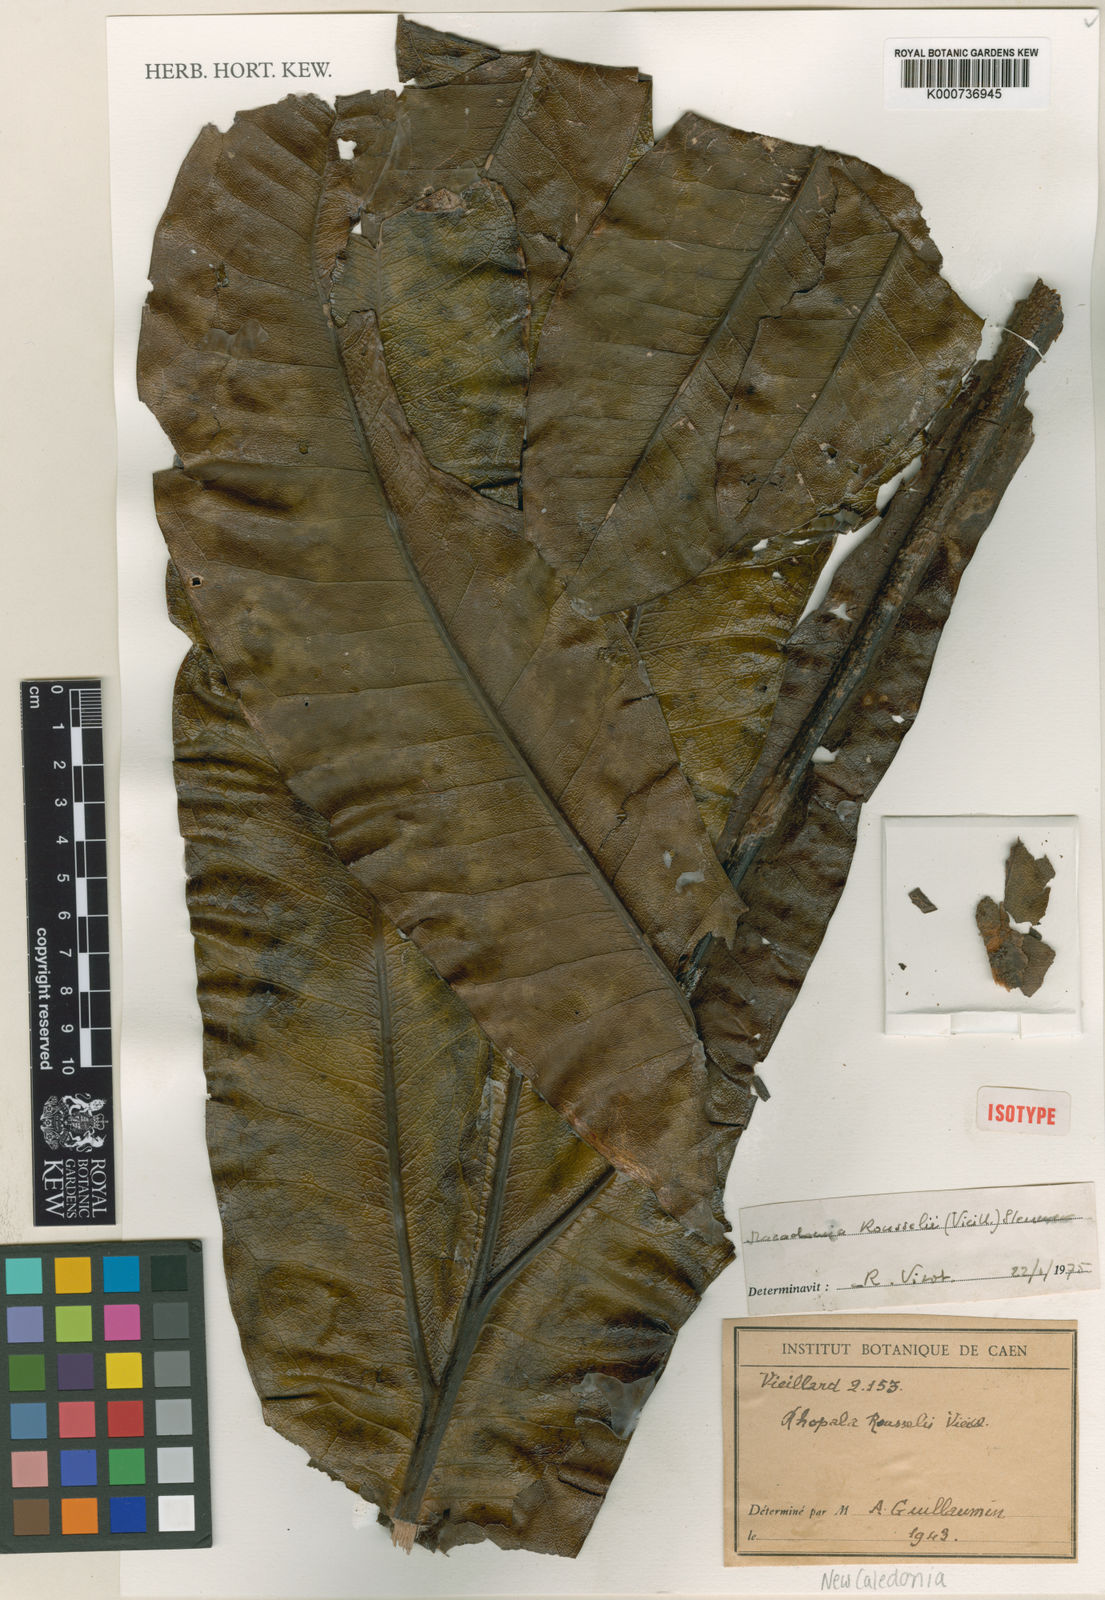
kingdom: Plantae
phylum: Tracheophyta
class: Magnoliopsida
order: Proteales
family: Proteaceae
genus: Virotia
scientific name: Virotia rousselii
